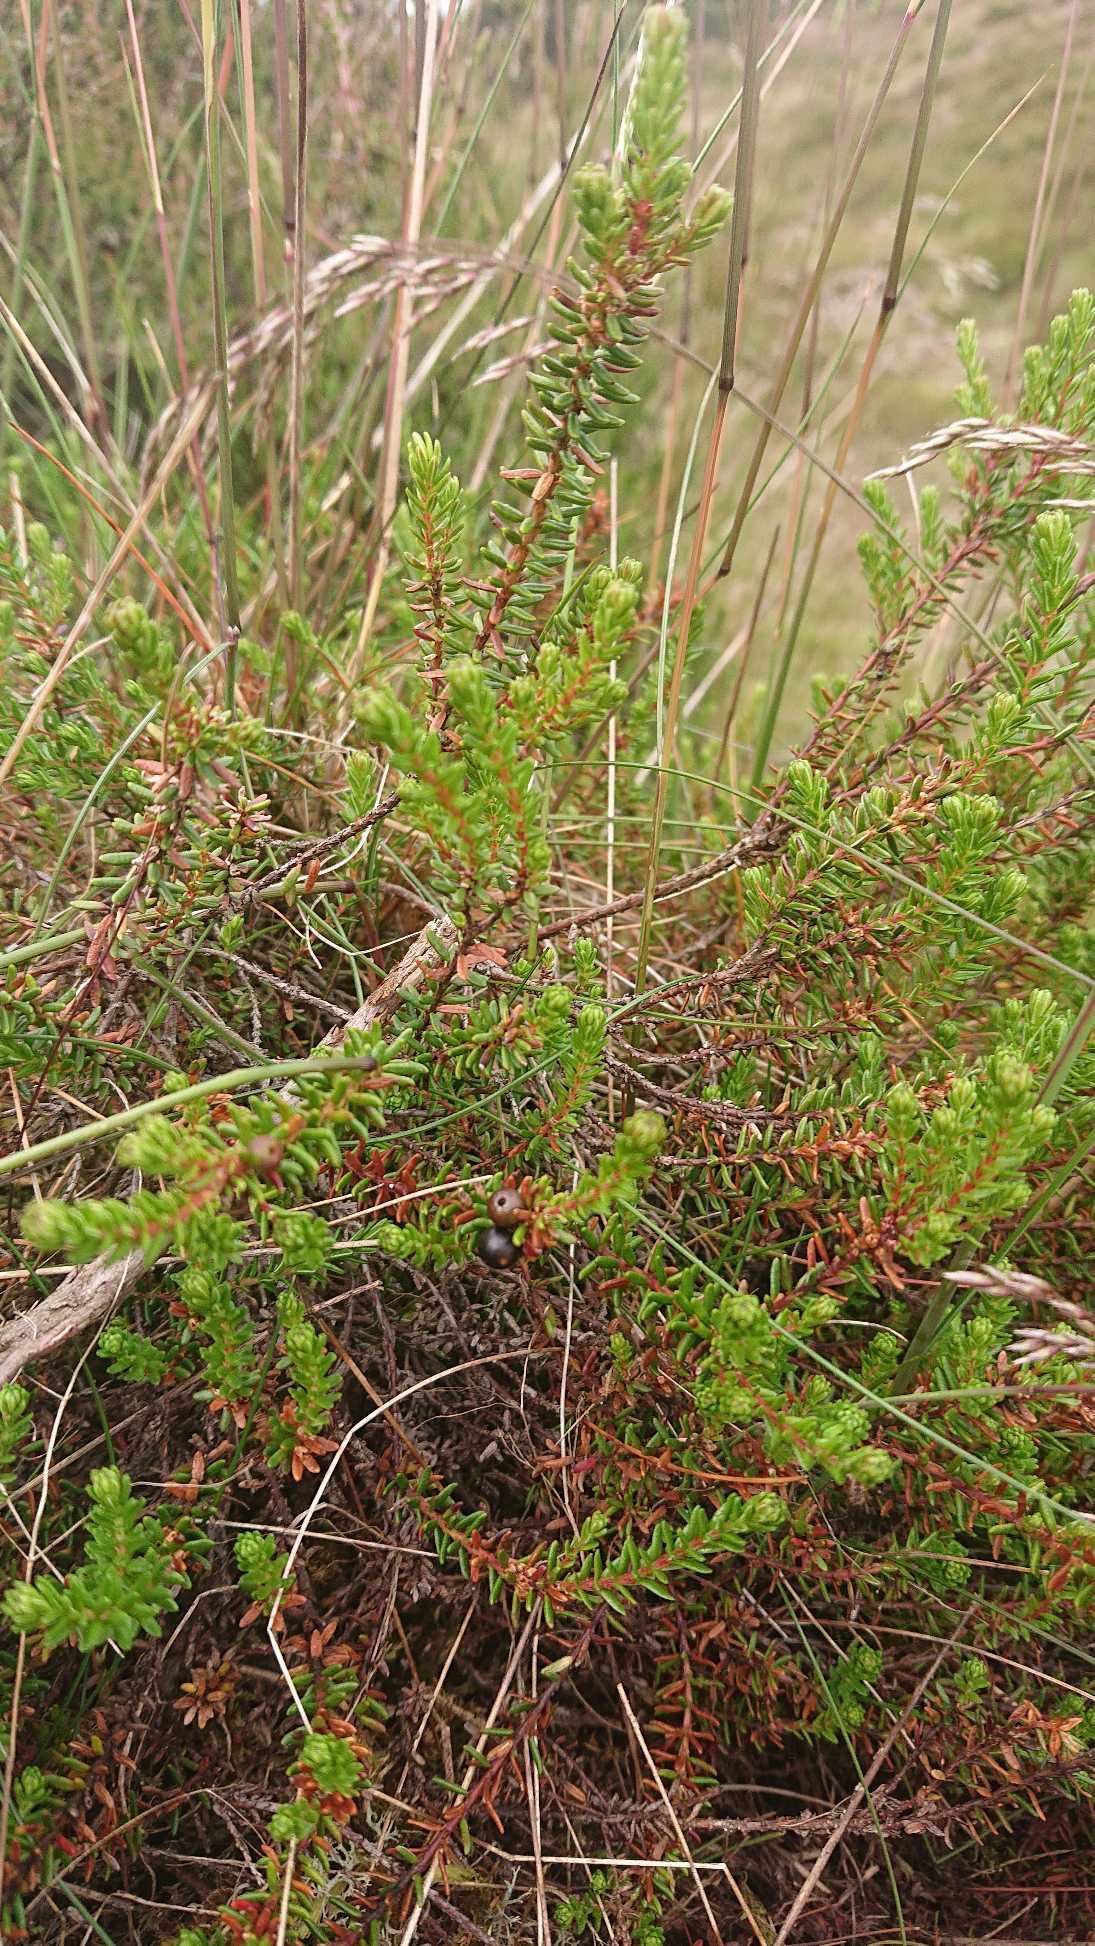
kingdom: Plantae
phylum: Tracheophyta
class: Magnoliopsida
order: Ericales
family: Ericaceae
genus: Empetrum
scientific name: Empetrum nigrum
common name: Revling
